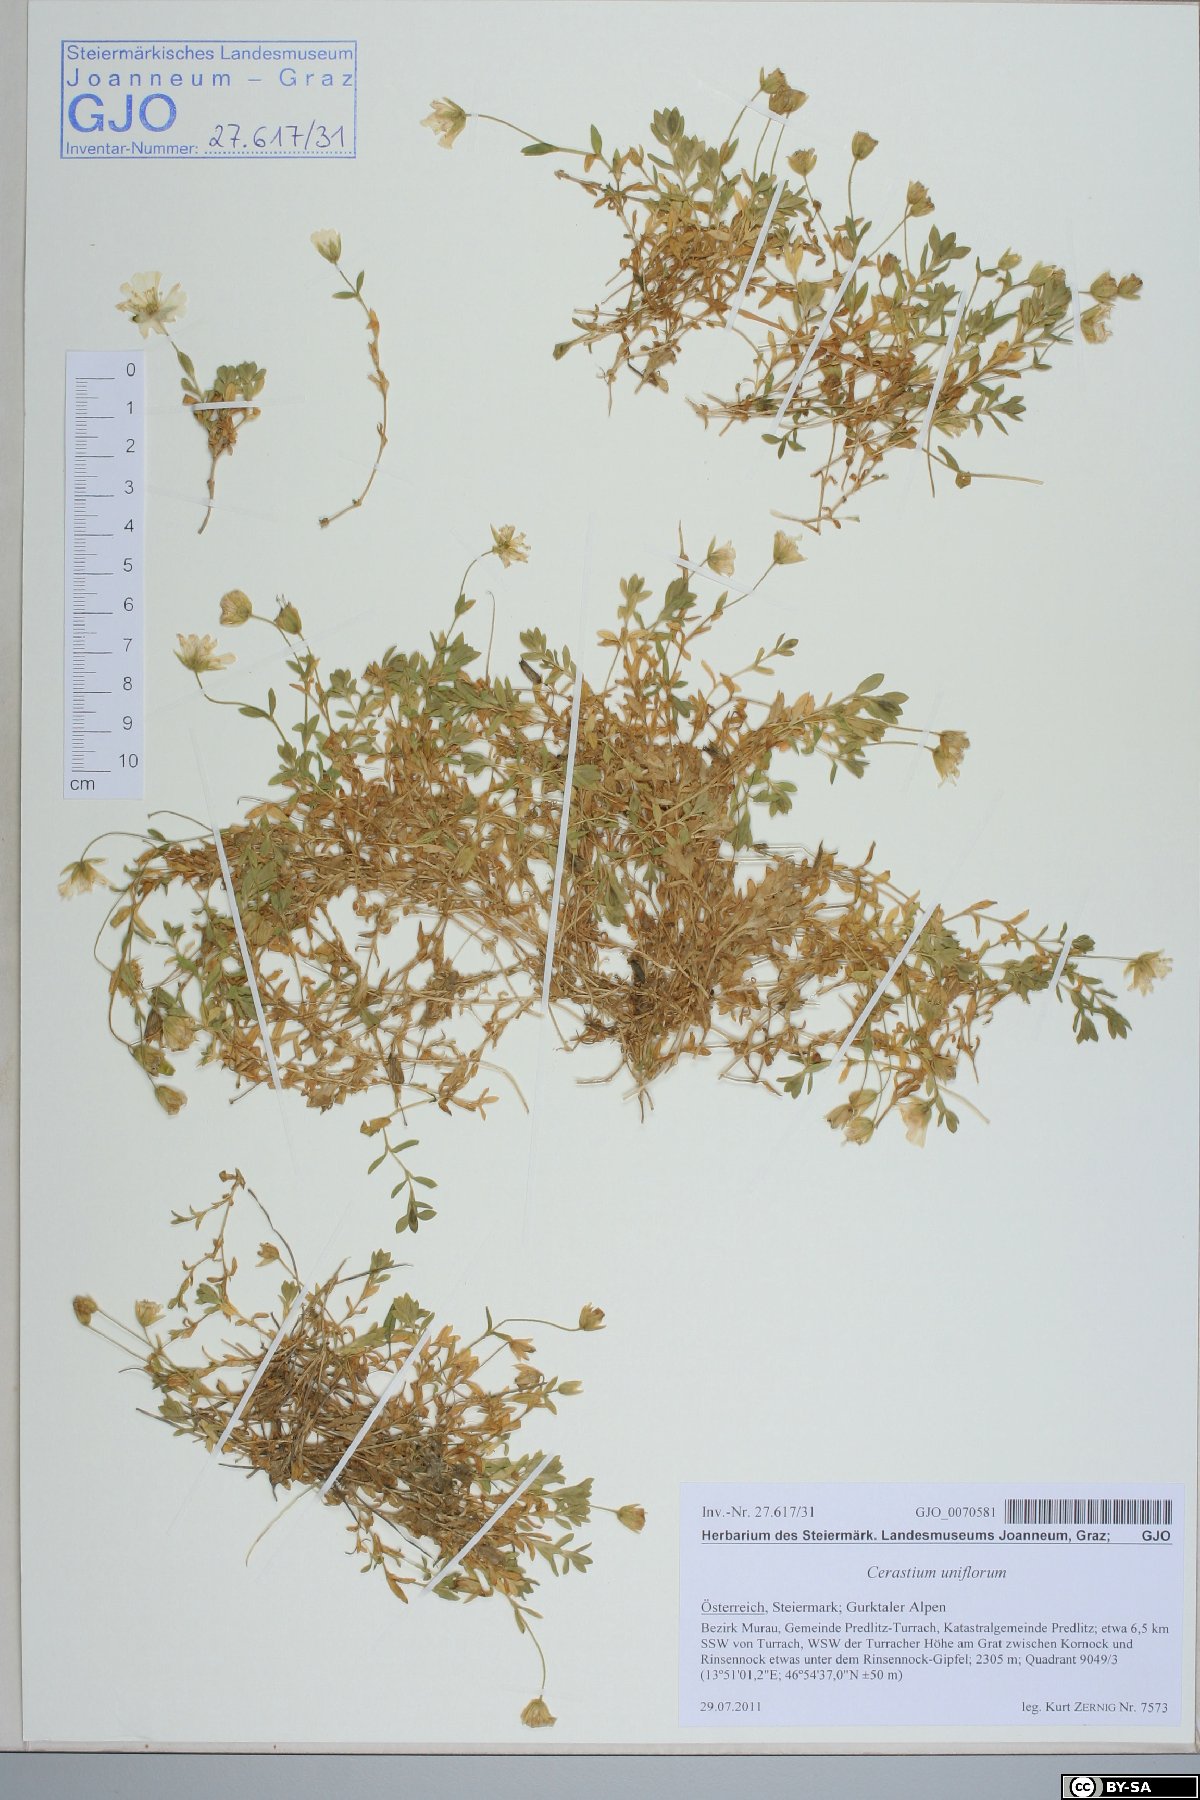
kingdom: Plantae
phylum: Tracheophyta
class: Magnoliopsida
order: Caryophyllales
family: Caryophyllaceae
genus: Cerastium
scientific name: Cerastium uniflorum
